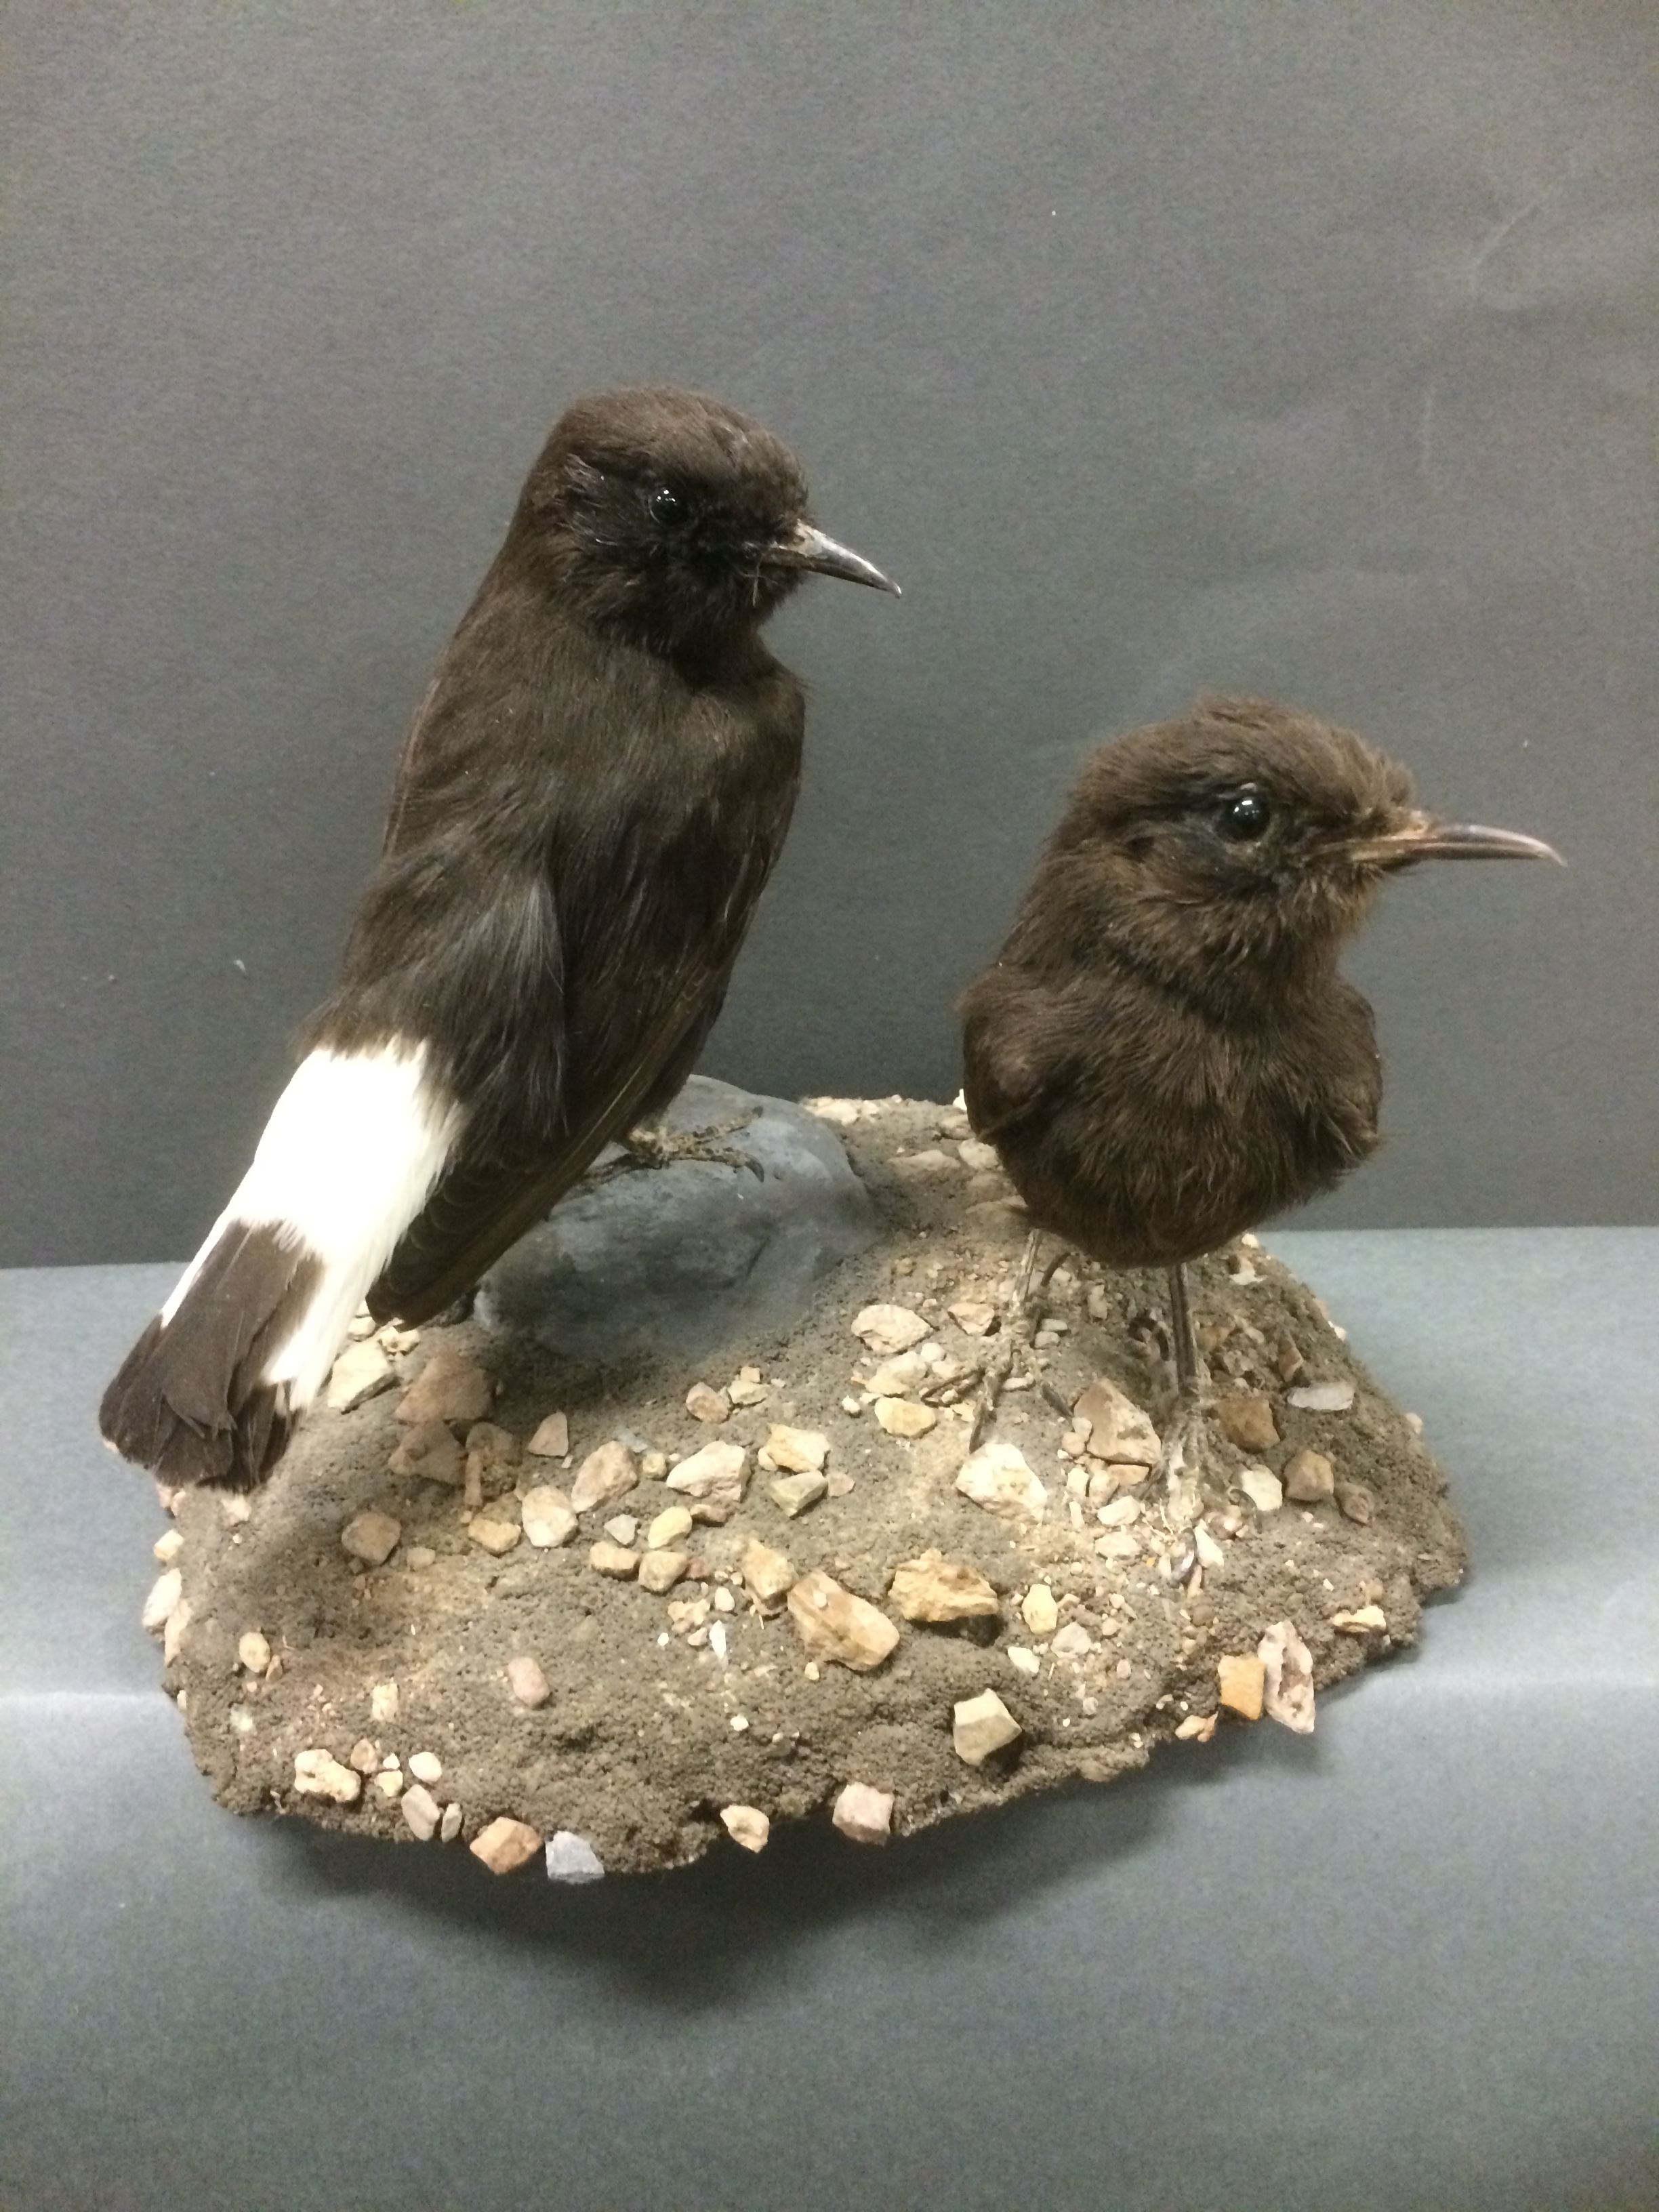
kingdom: Animalia
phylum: Chordata
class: Aves
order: Passeriformes
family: Muscicapidae
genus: Oenanthe
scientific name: Oenanthe leucura
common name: Black wheatear
